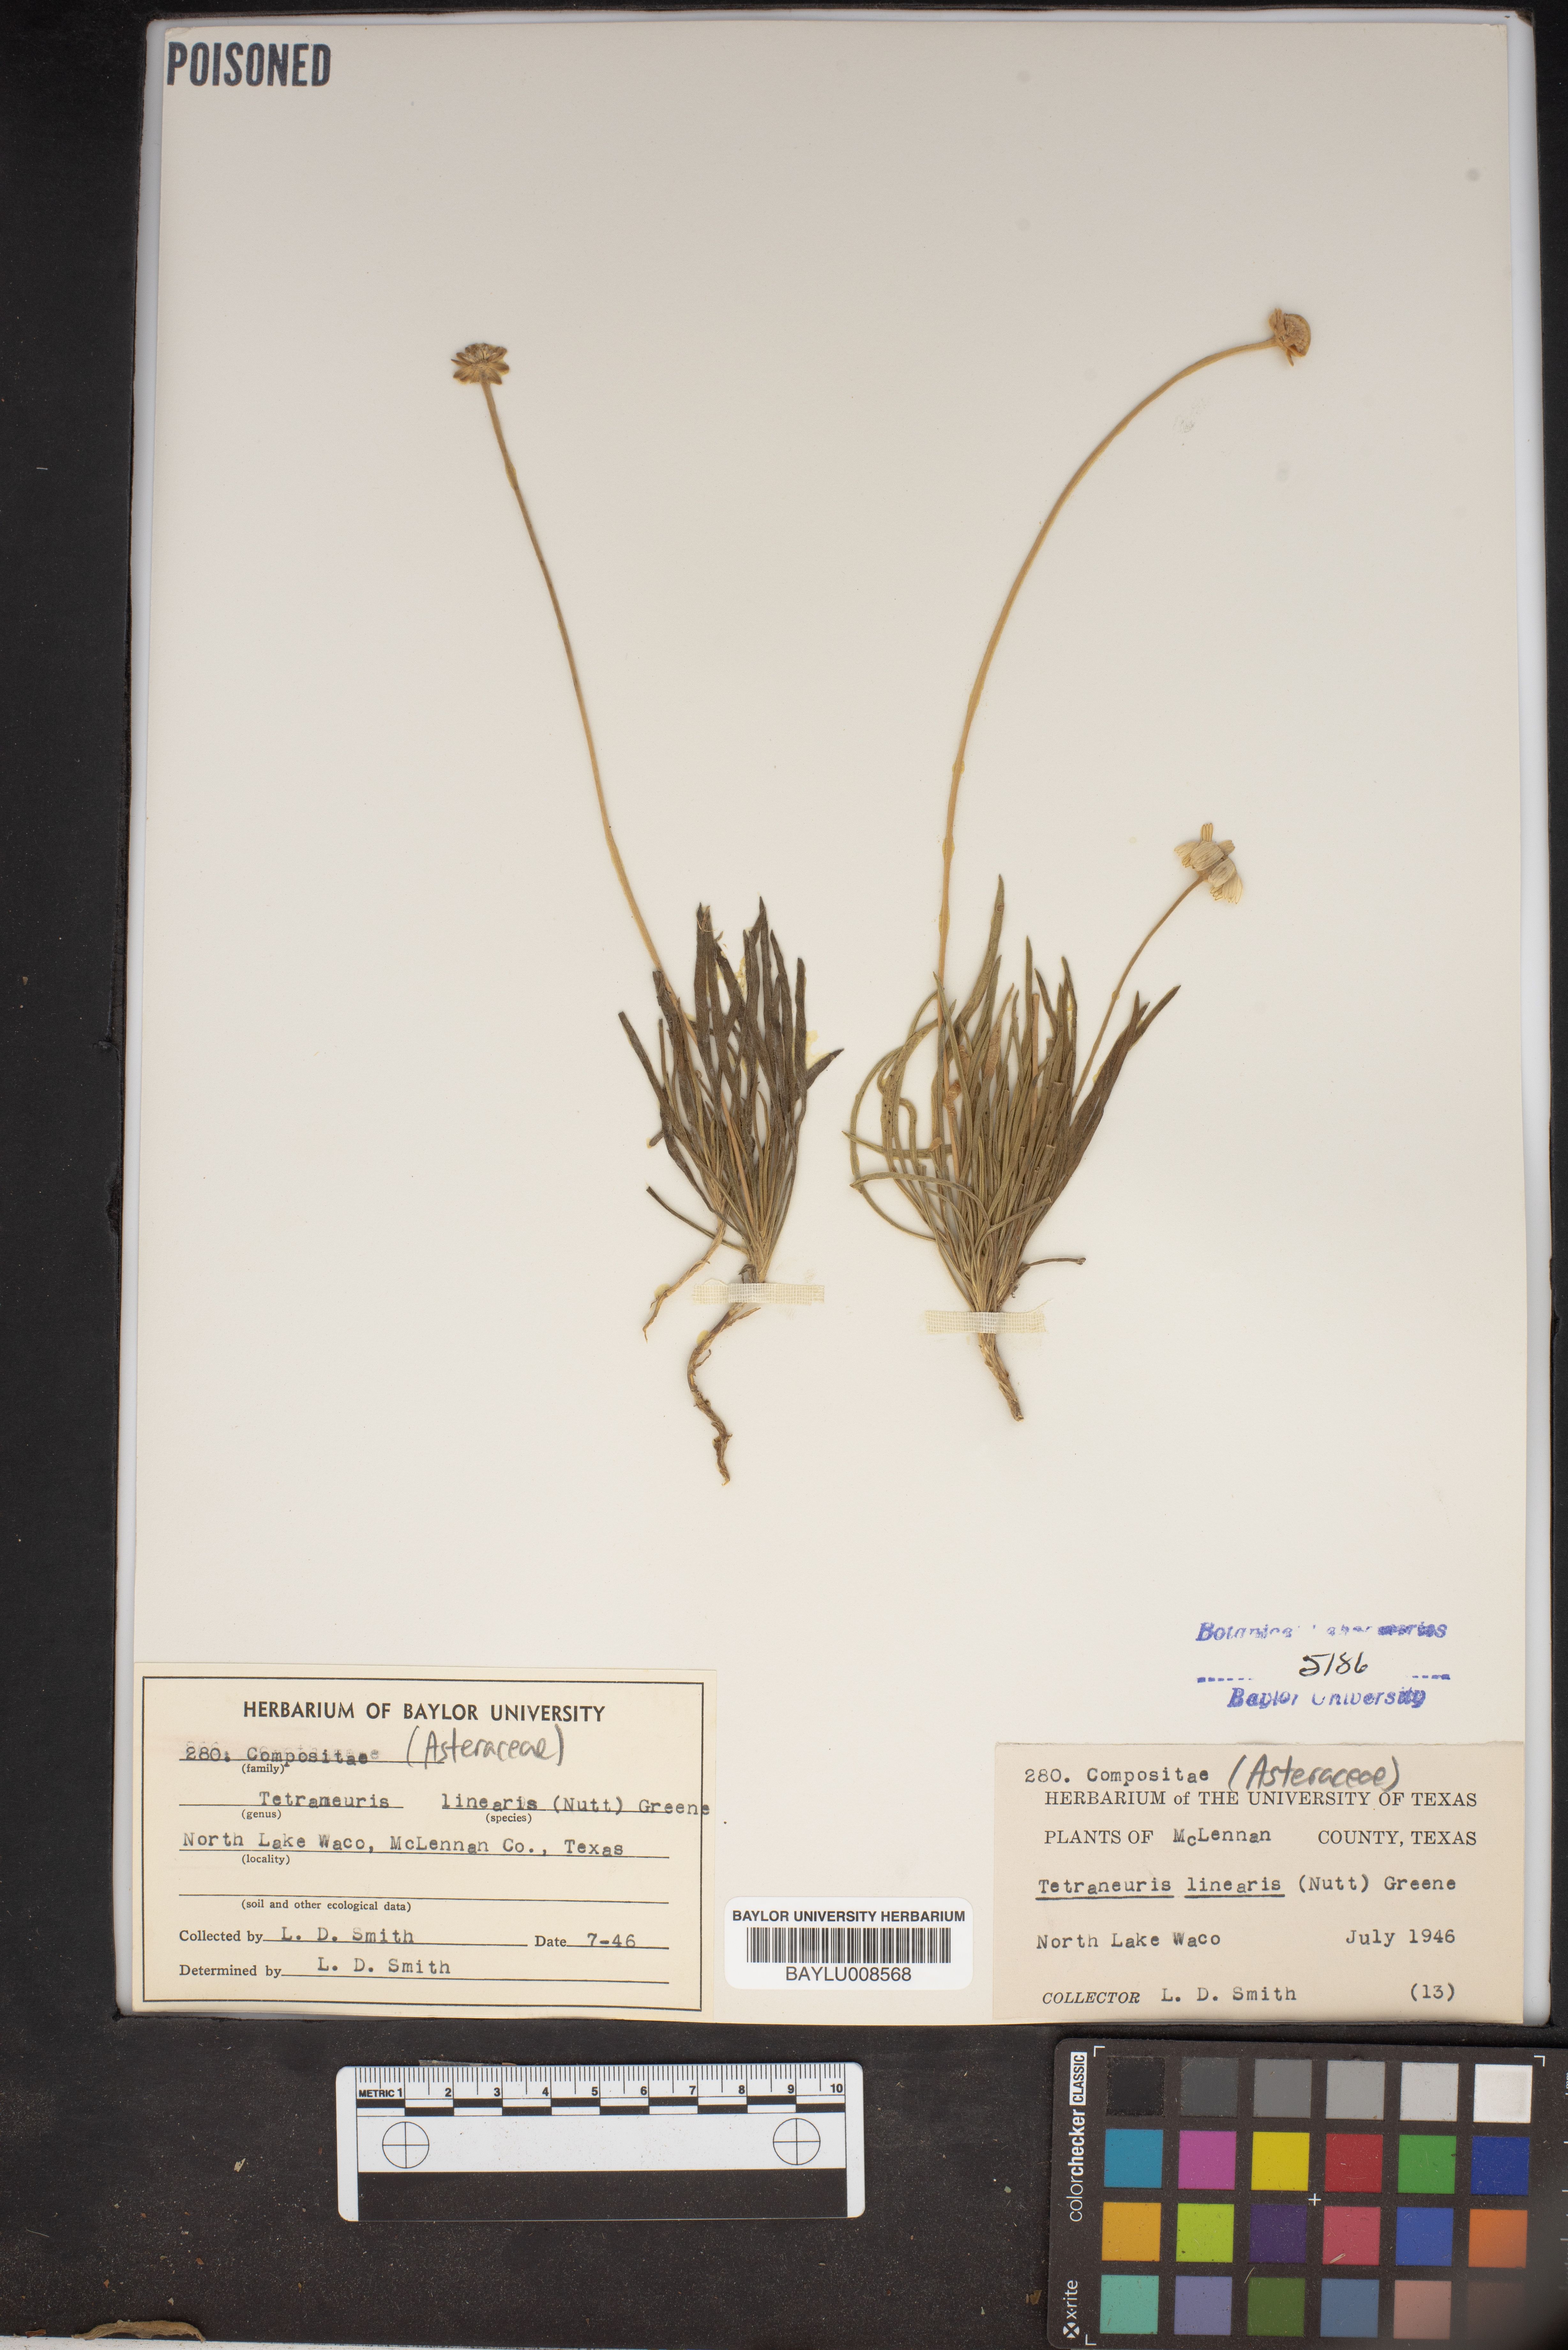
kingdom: Plantae
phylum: Tracheophyta
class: Magnoliopsida
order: Asterales
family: Asteraceae
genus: Tetraneuris
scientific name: Tetraneuris scaposa
